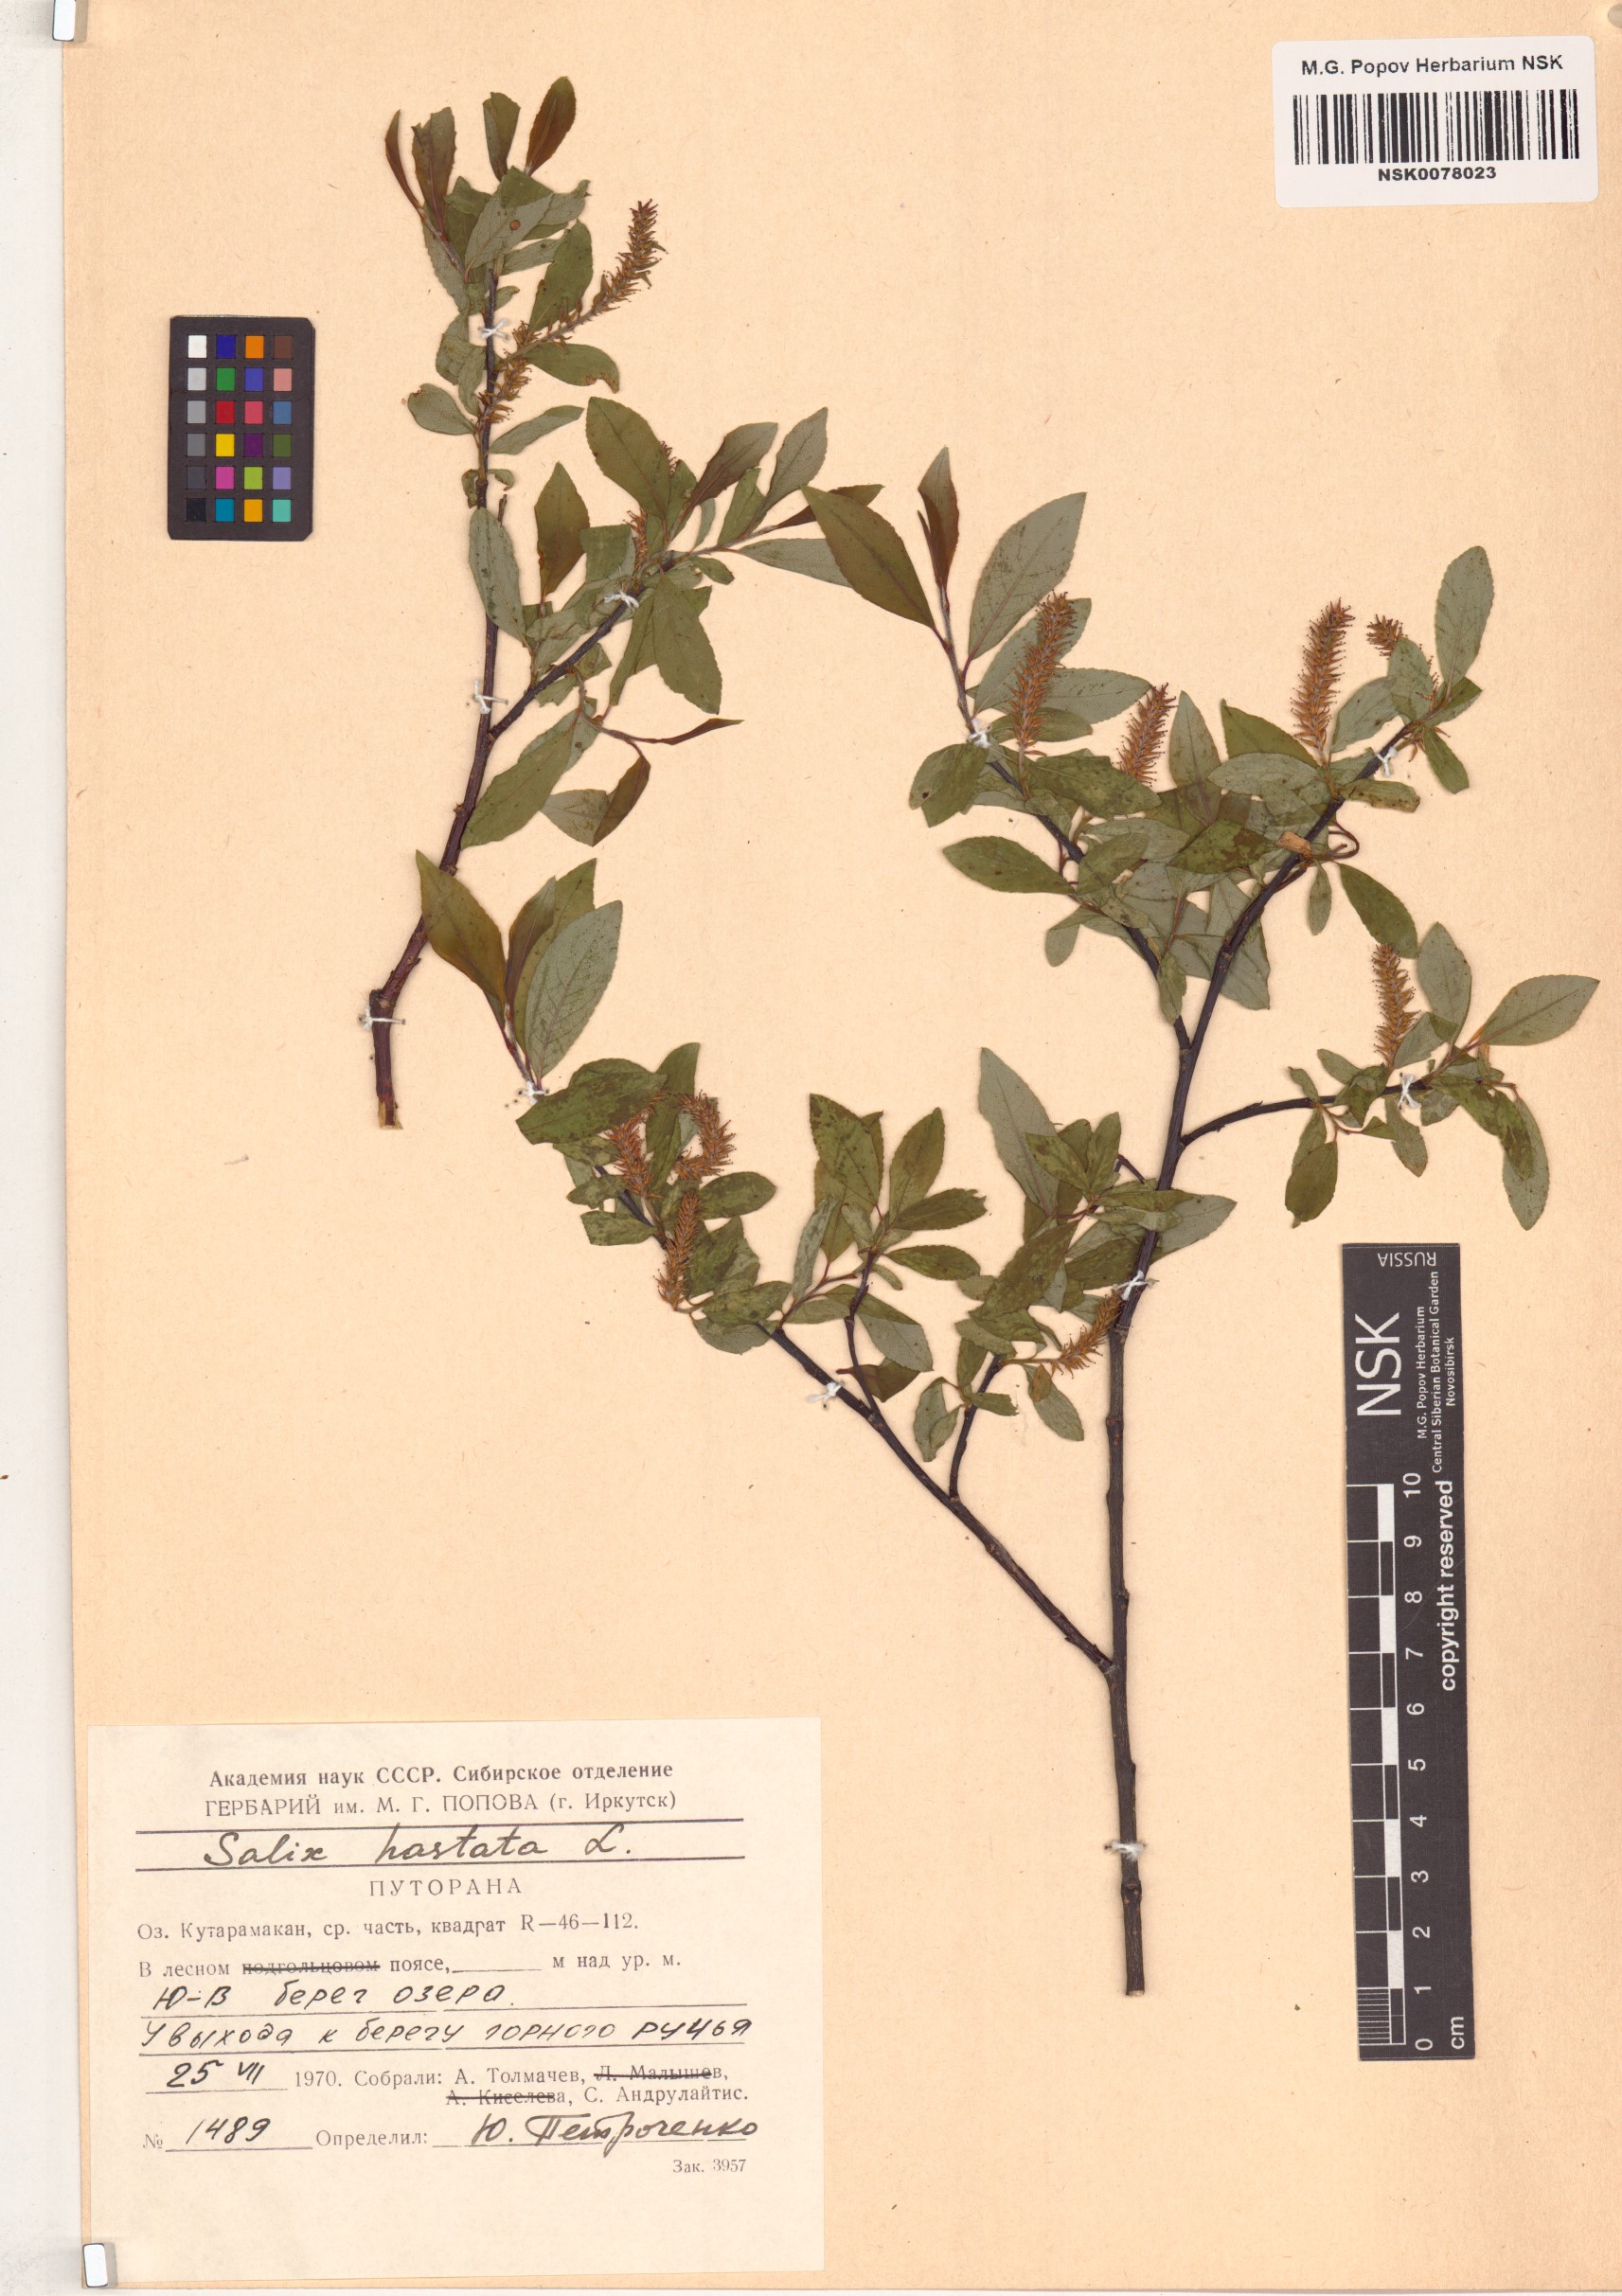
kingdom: Plantae
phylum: Tracheophyta
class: Magnoliopsida
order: Malpighiales
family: Salicaceae
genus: Salix
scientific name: Salix hastata
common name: Halberd willow
